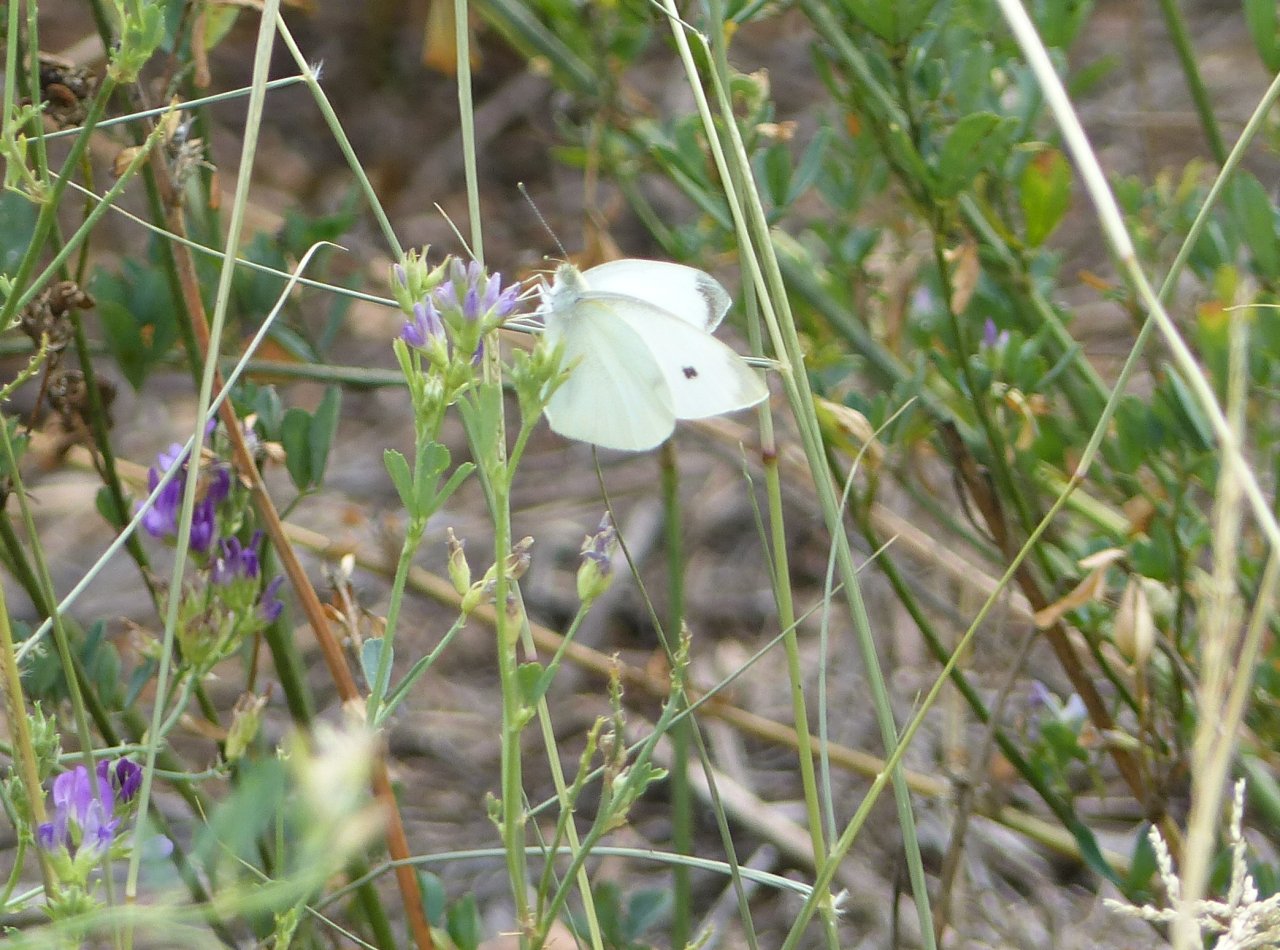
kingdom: Animalia
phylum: Arthropoda
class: Insecta
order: Lepidoptera
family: Pieridae
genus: Pieris
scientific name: Pieris rapae
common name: Cabbage White
